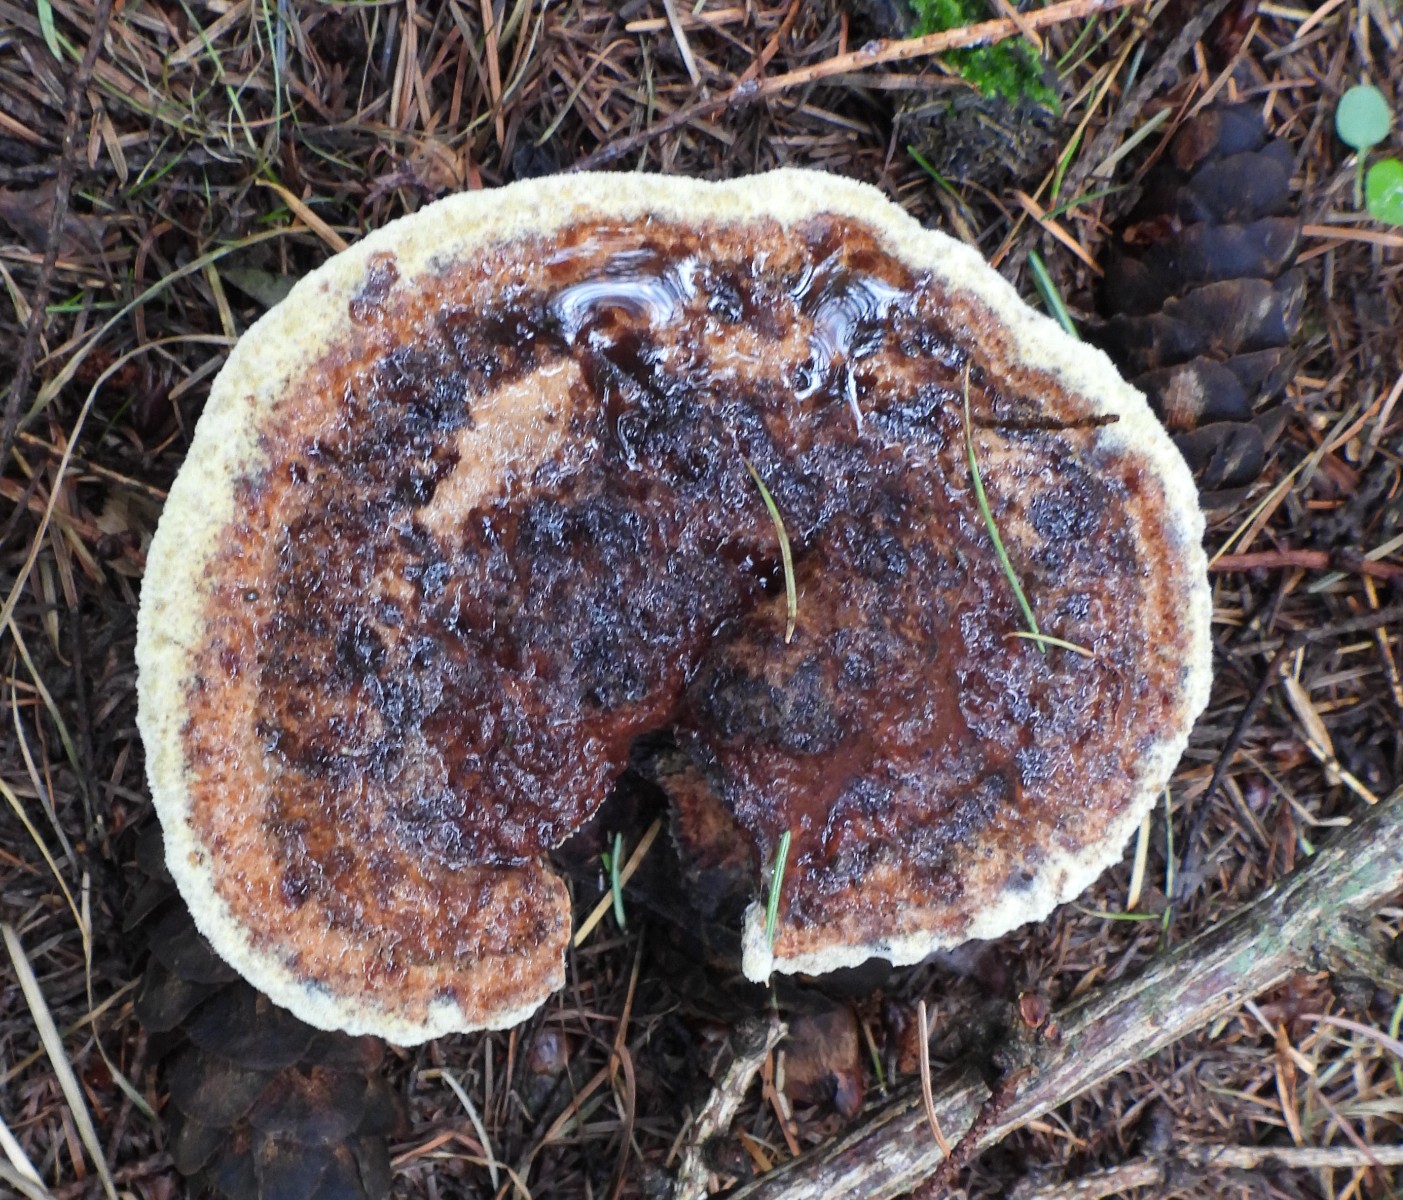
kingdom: Fungi
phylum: Basidiomycota
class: Agaricomycetes
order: Polyporales
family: Laetiporaceae
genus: Phaeolus
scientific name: Phaeolus schweinitzii
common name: brunporesvamp
